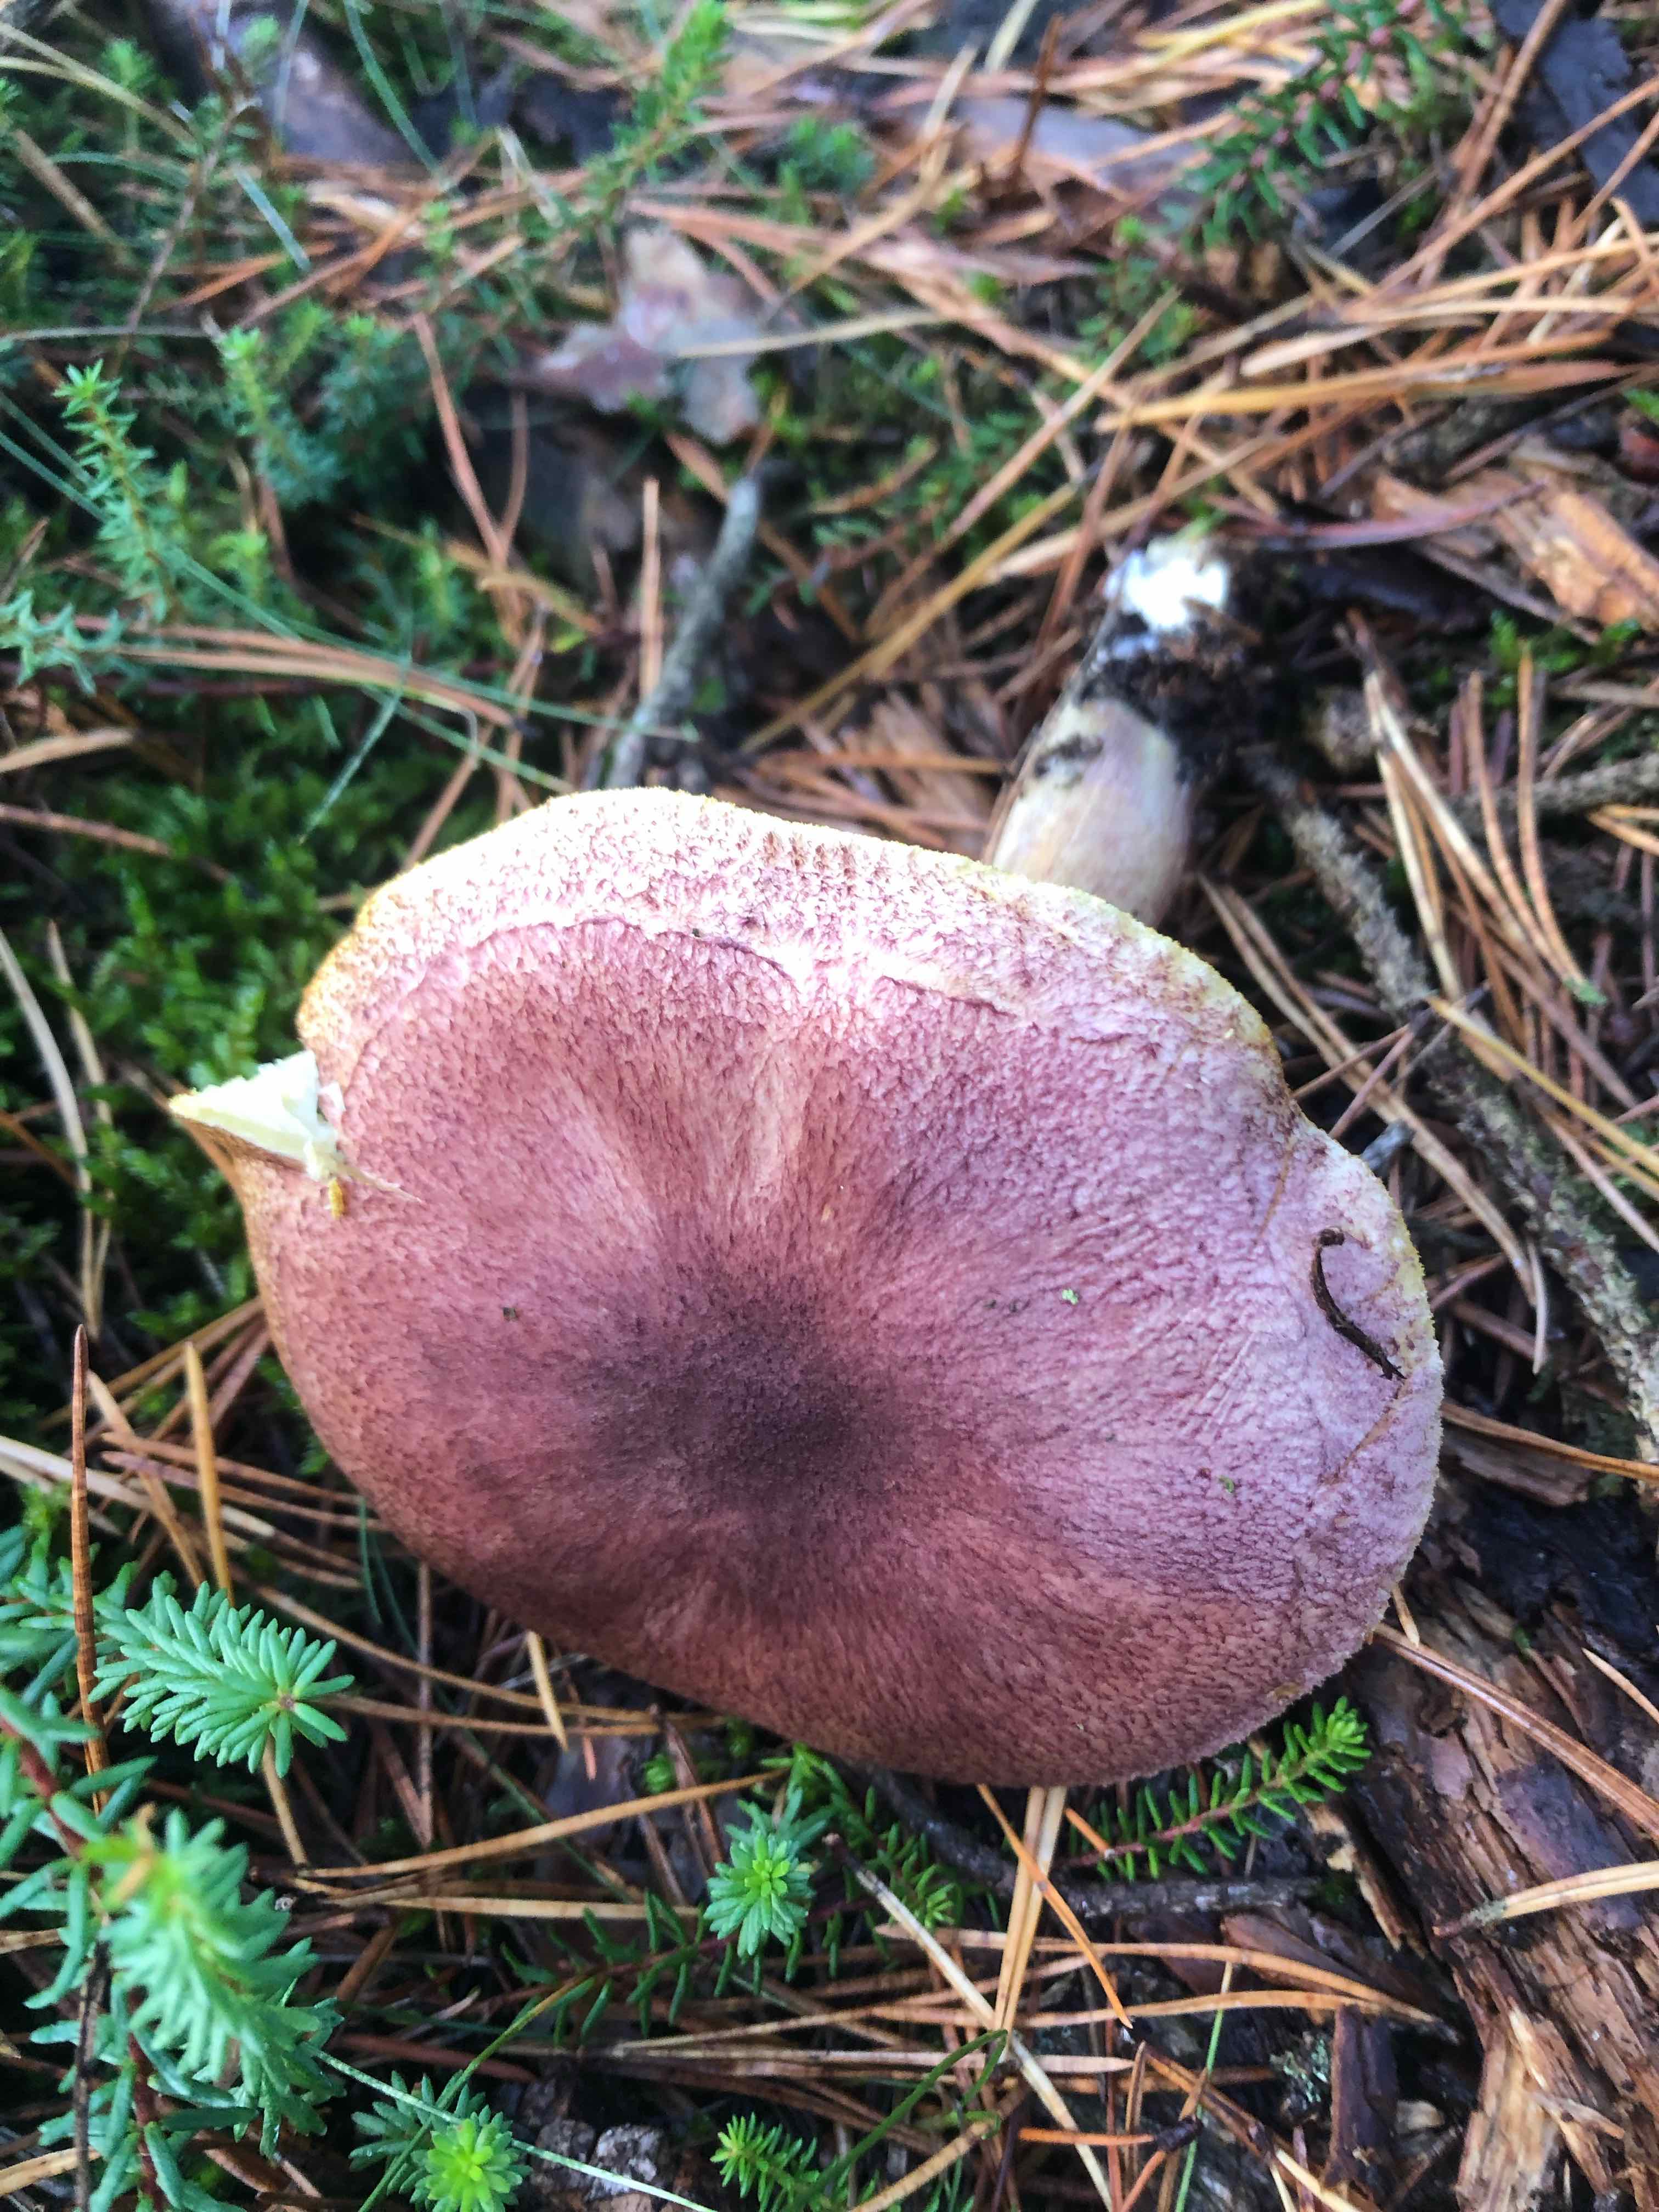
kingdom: Fungi
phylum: Basidiomycota
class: Agaricomycetes
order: Agaricales
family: Tricholomataceae
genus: Tricholomopsis
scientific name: Tricholomopsis rutilans
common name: purpur-væbnerhat
